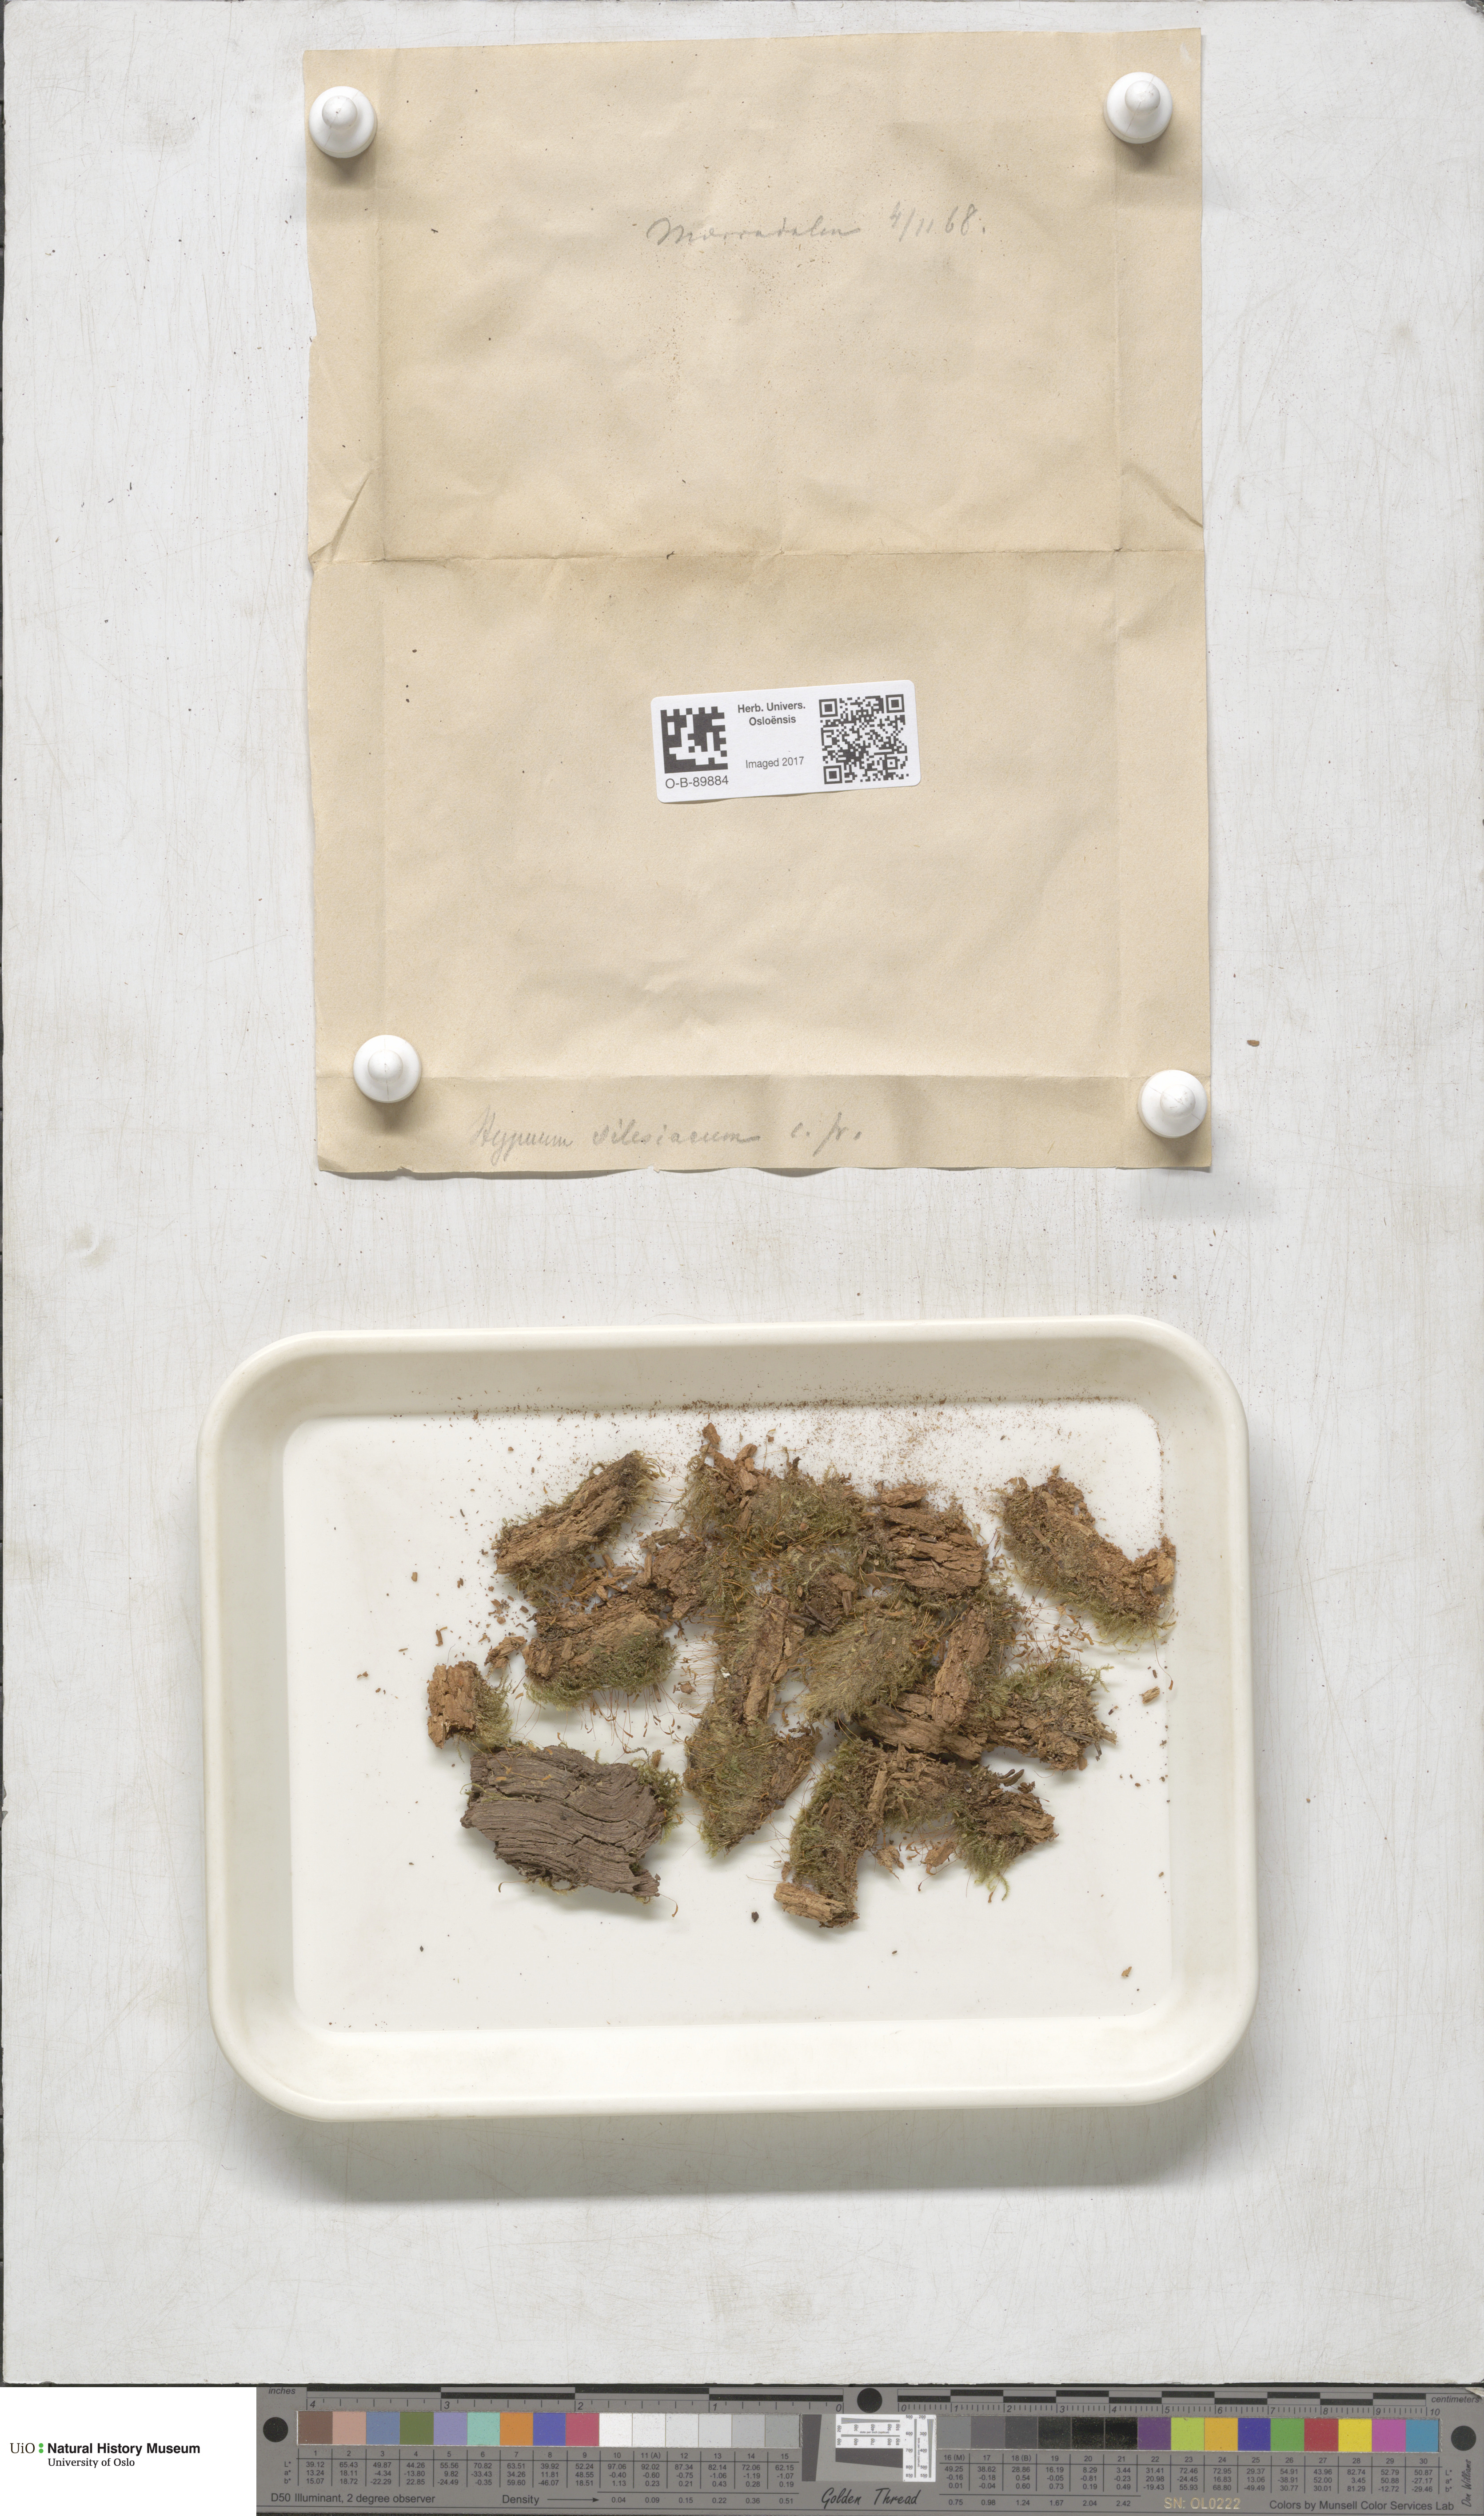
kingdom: Plantae
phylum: Bryophyta
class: Bryopsida
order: Hypnales
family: Plagiotheciaceae
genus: Herzogiella
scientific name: Herzogiella seligeri
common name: Silesian feather-moss
